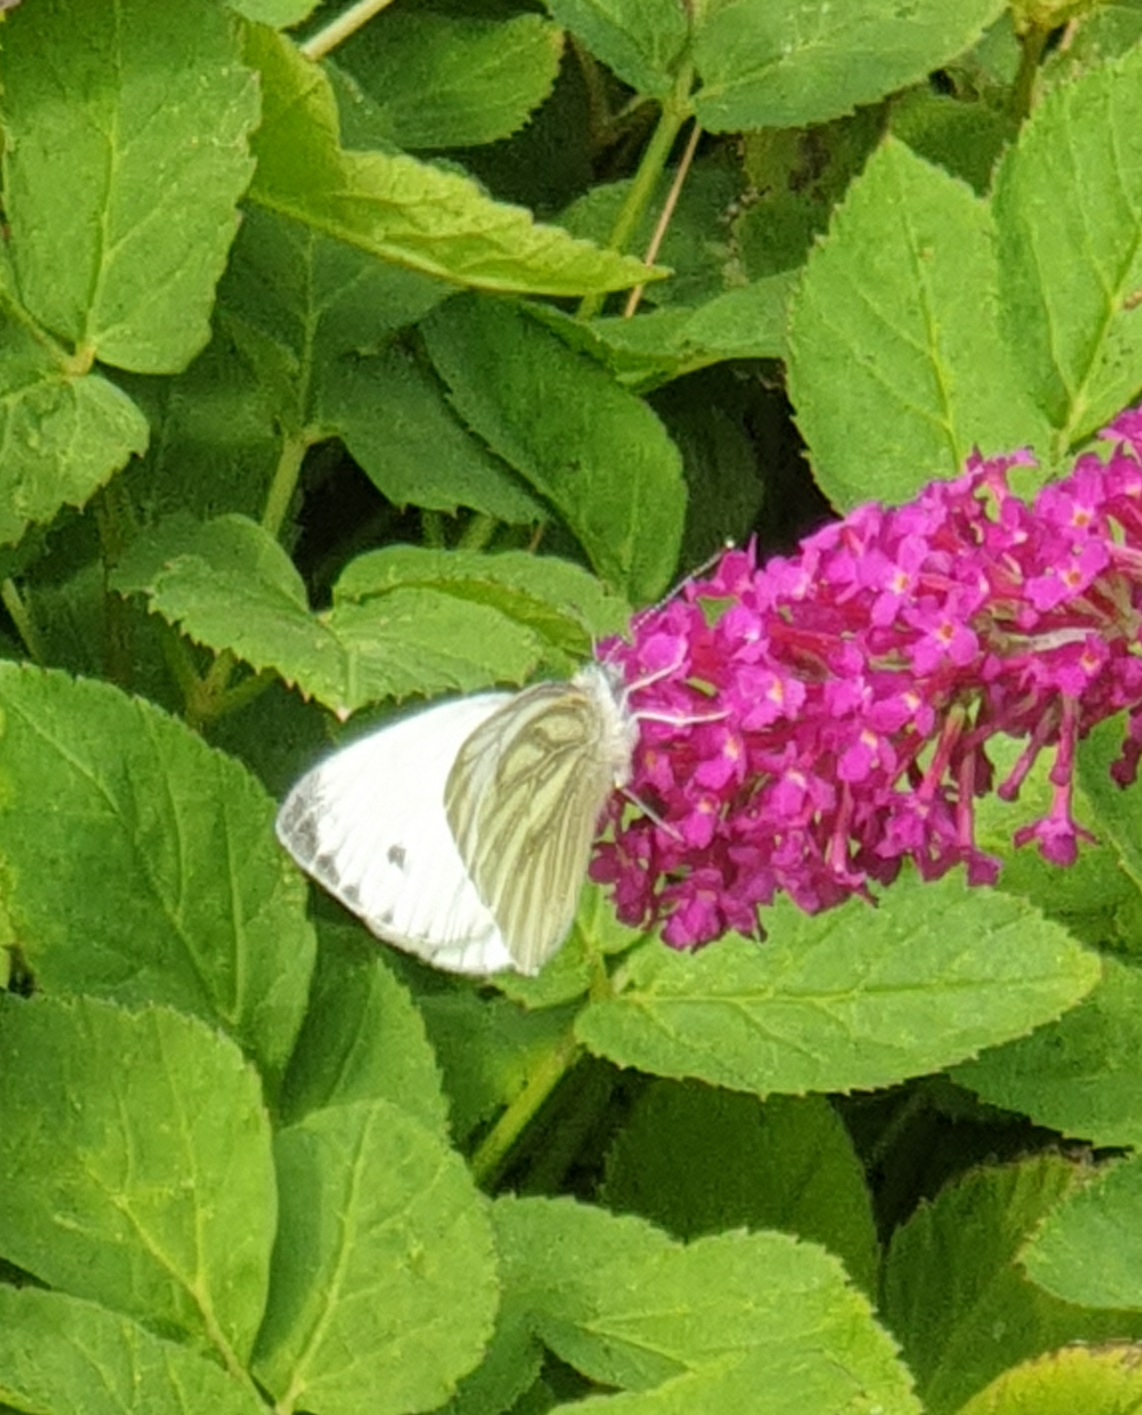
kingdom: Animalia
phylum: Arthropoda
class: Insecta
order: Lepidoptera
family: Pieridae
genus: Pieris
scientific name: Pieris napi
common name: Grønåret kålsommerfugl
